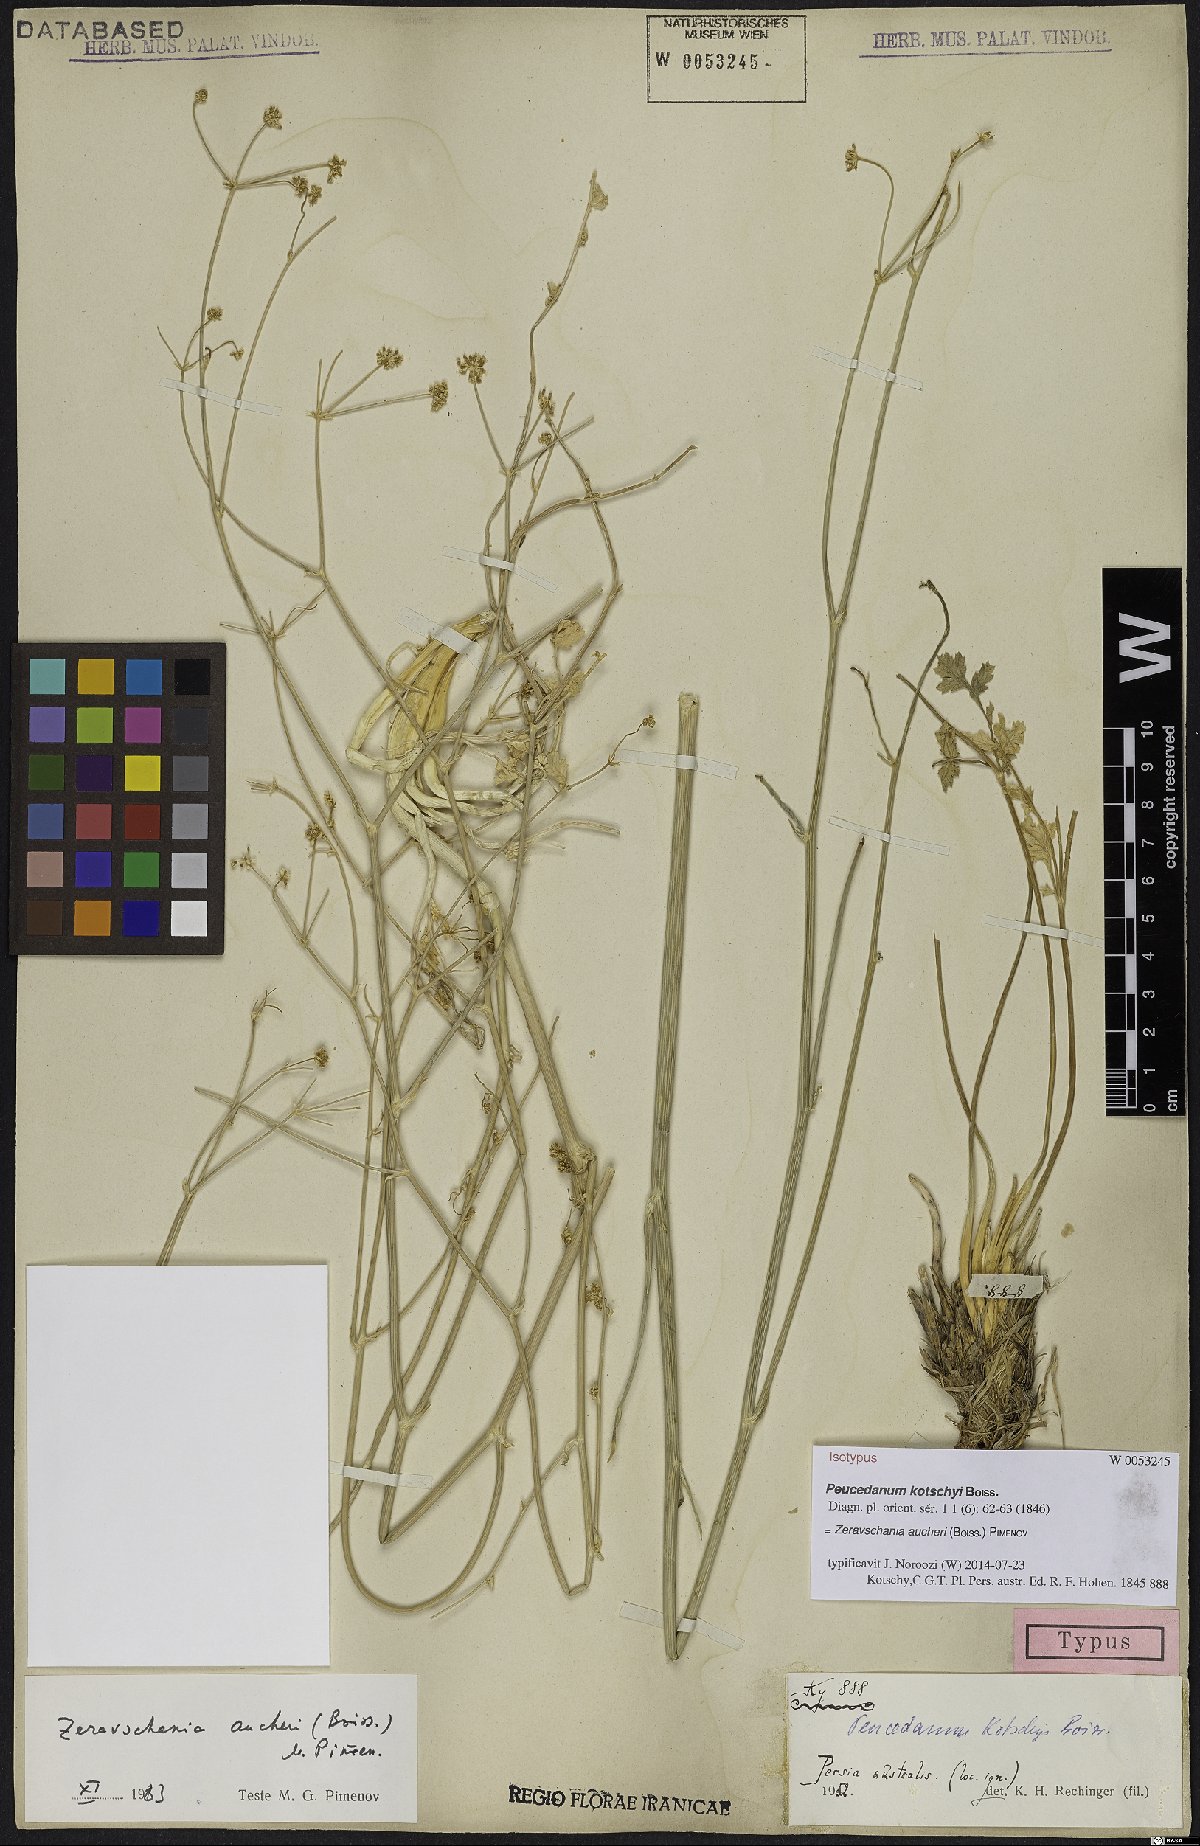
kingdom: Plantae
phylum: Tracheophyta
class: Magnoliopsida
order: Apiales
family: Apiaceae
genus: Zeravschania
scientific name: Zeravschania aucheri
